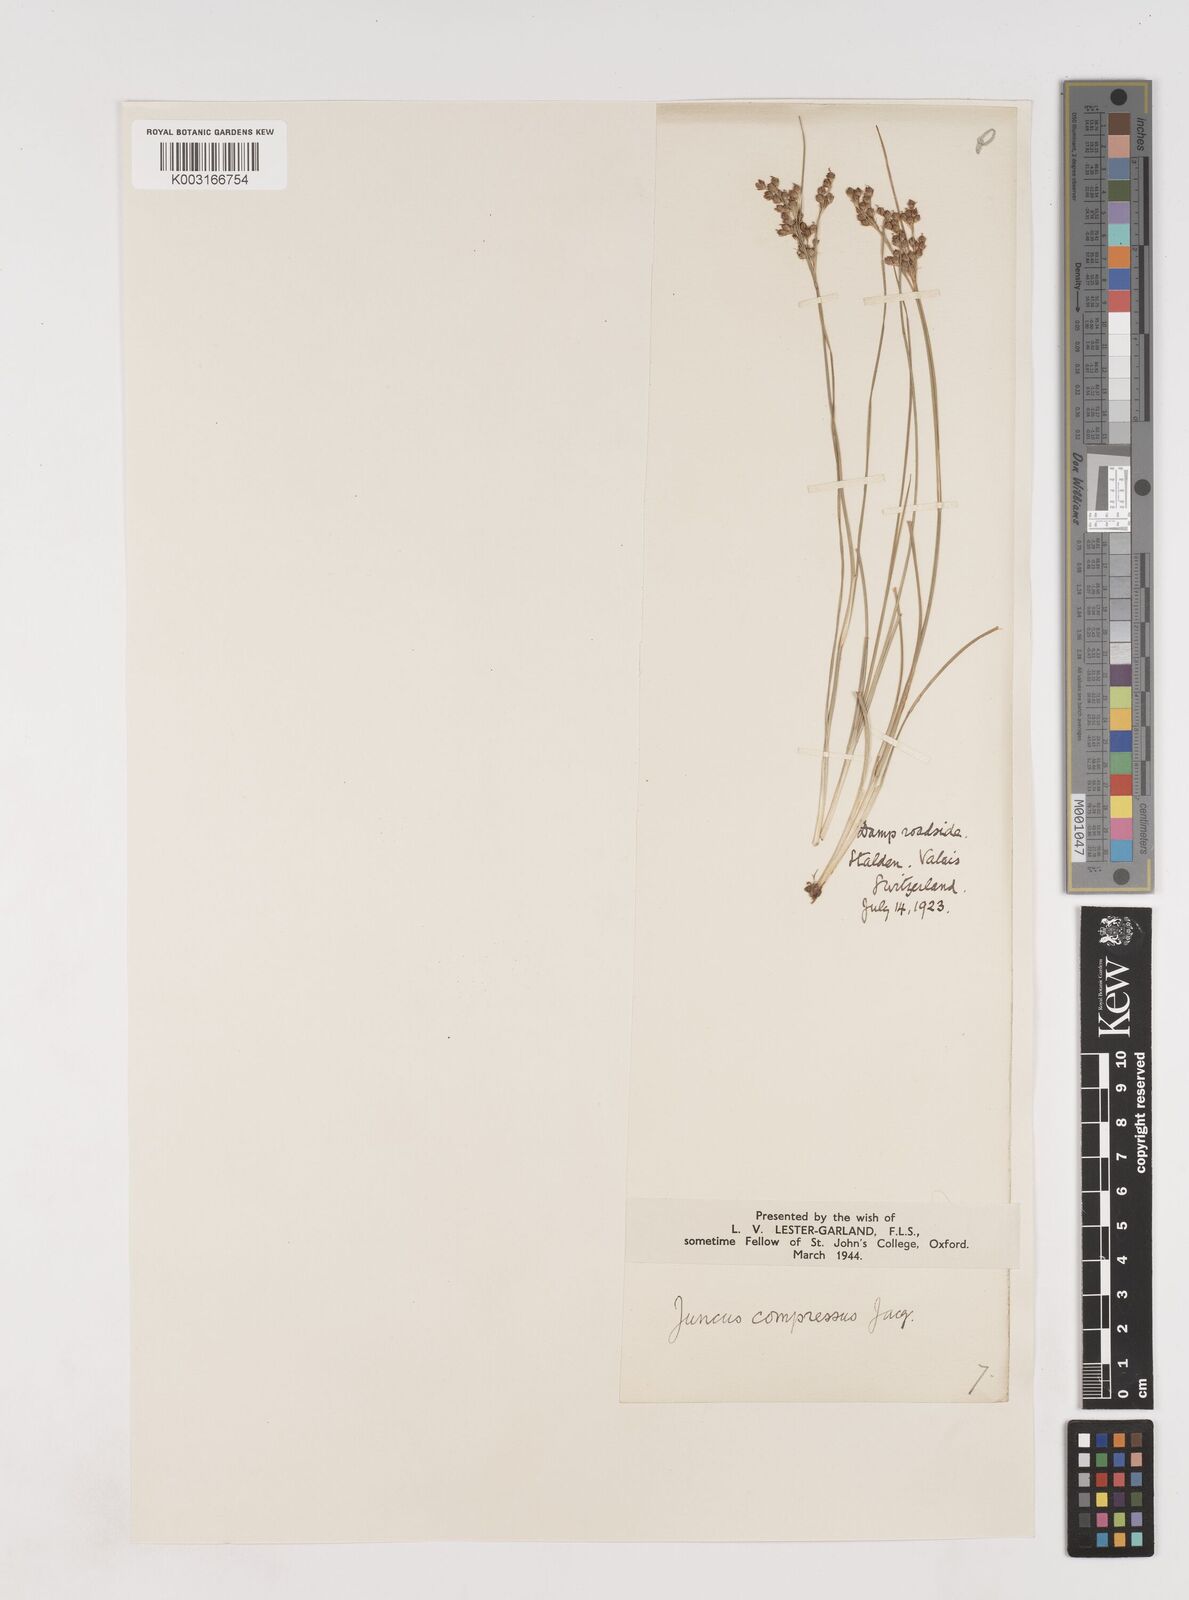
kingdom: Plantae
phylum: Tracheophyta
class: Liliopsida
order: Poales
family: Juncaceae
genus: Juncus
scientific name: Juncus
